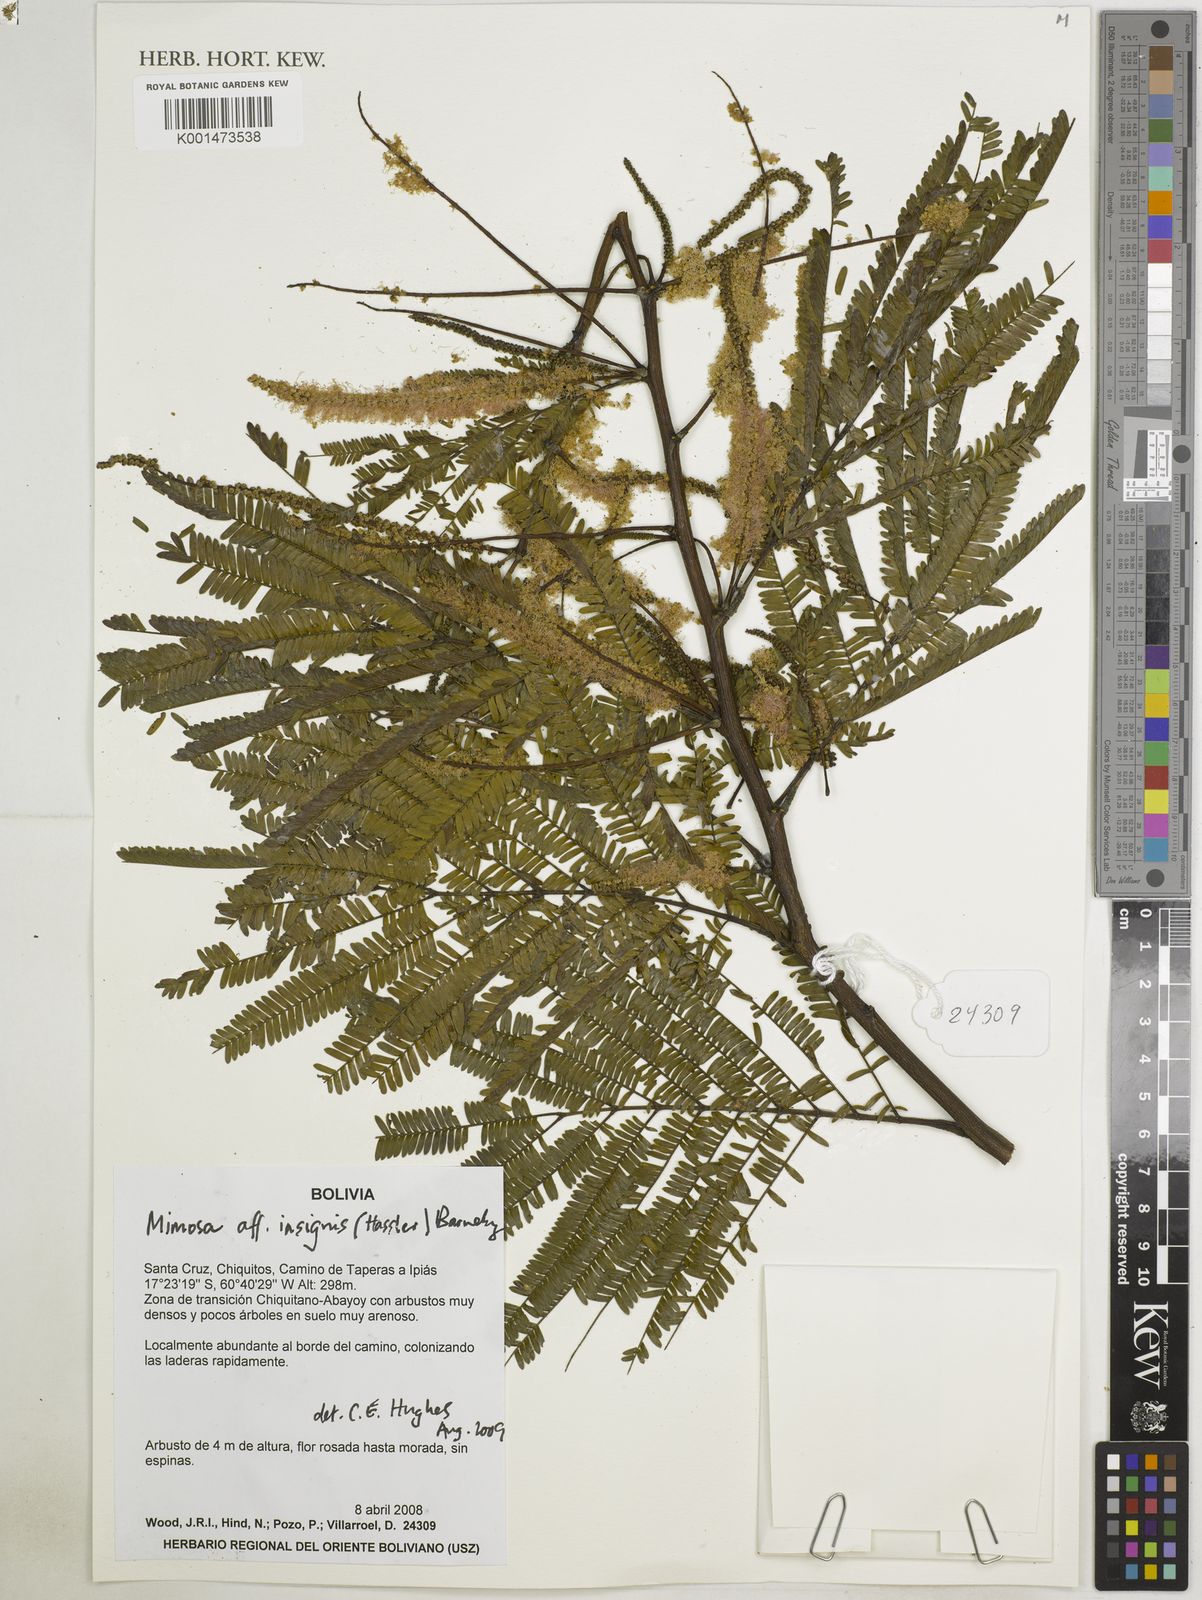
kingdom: Plantae
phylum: Tracheophyta
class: Magnoliopsida
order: Fabales
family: Fabaceae
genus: Mimosa
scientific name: Mimosa insignis
